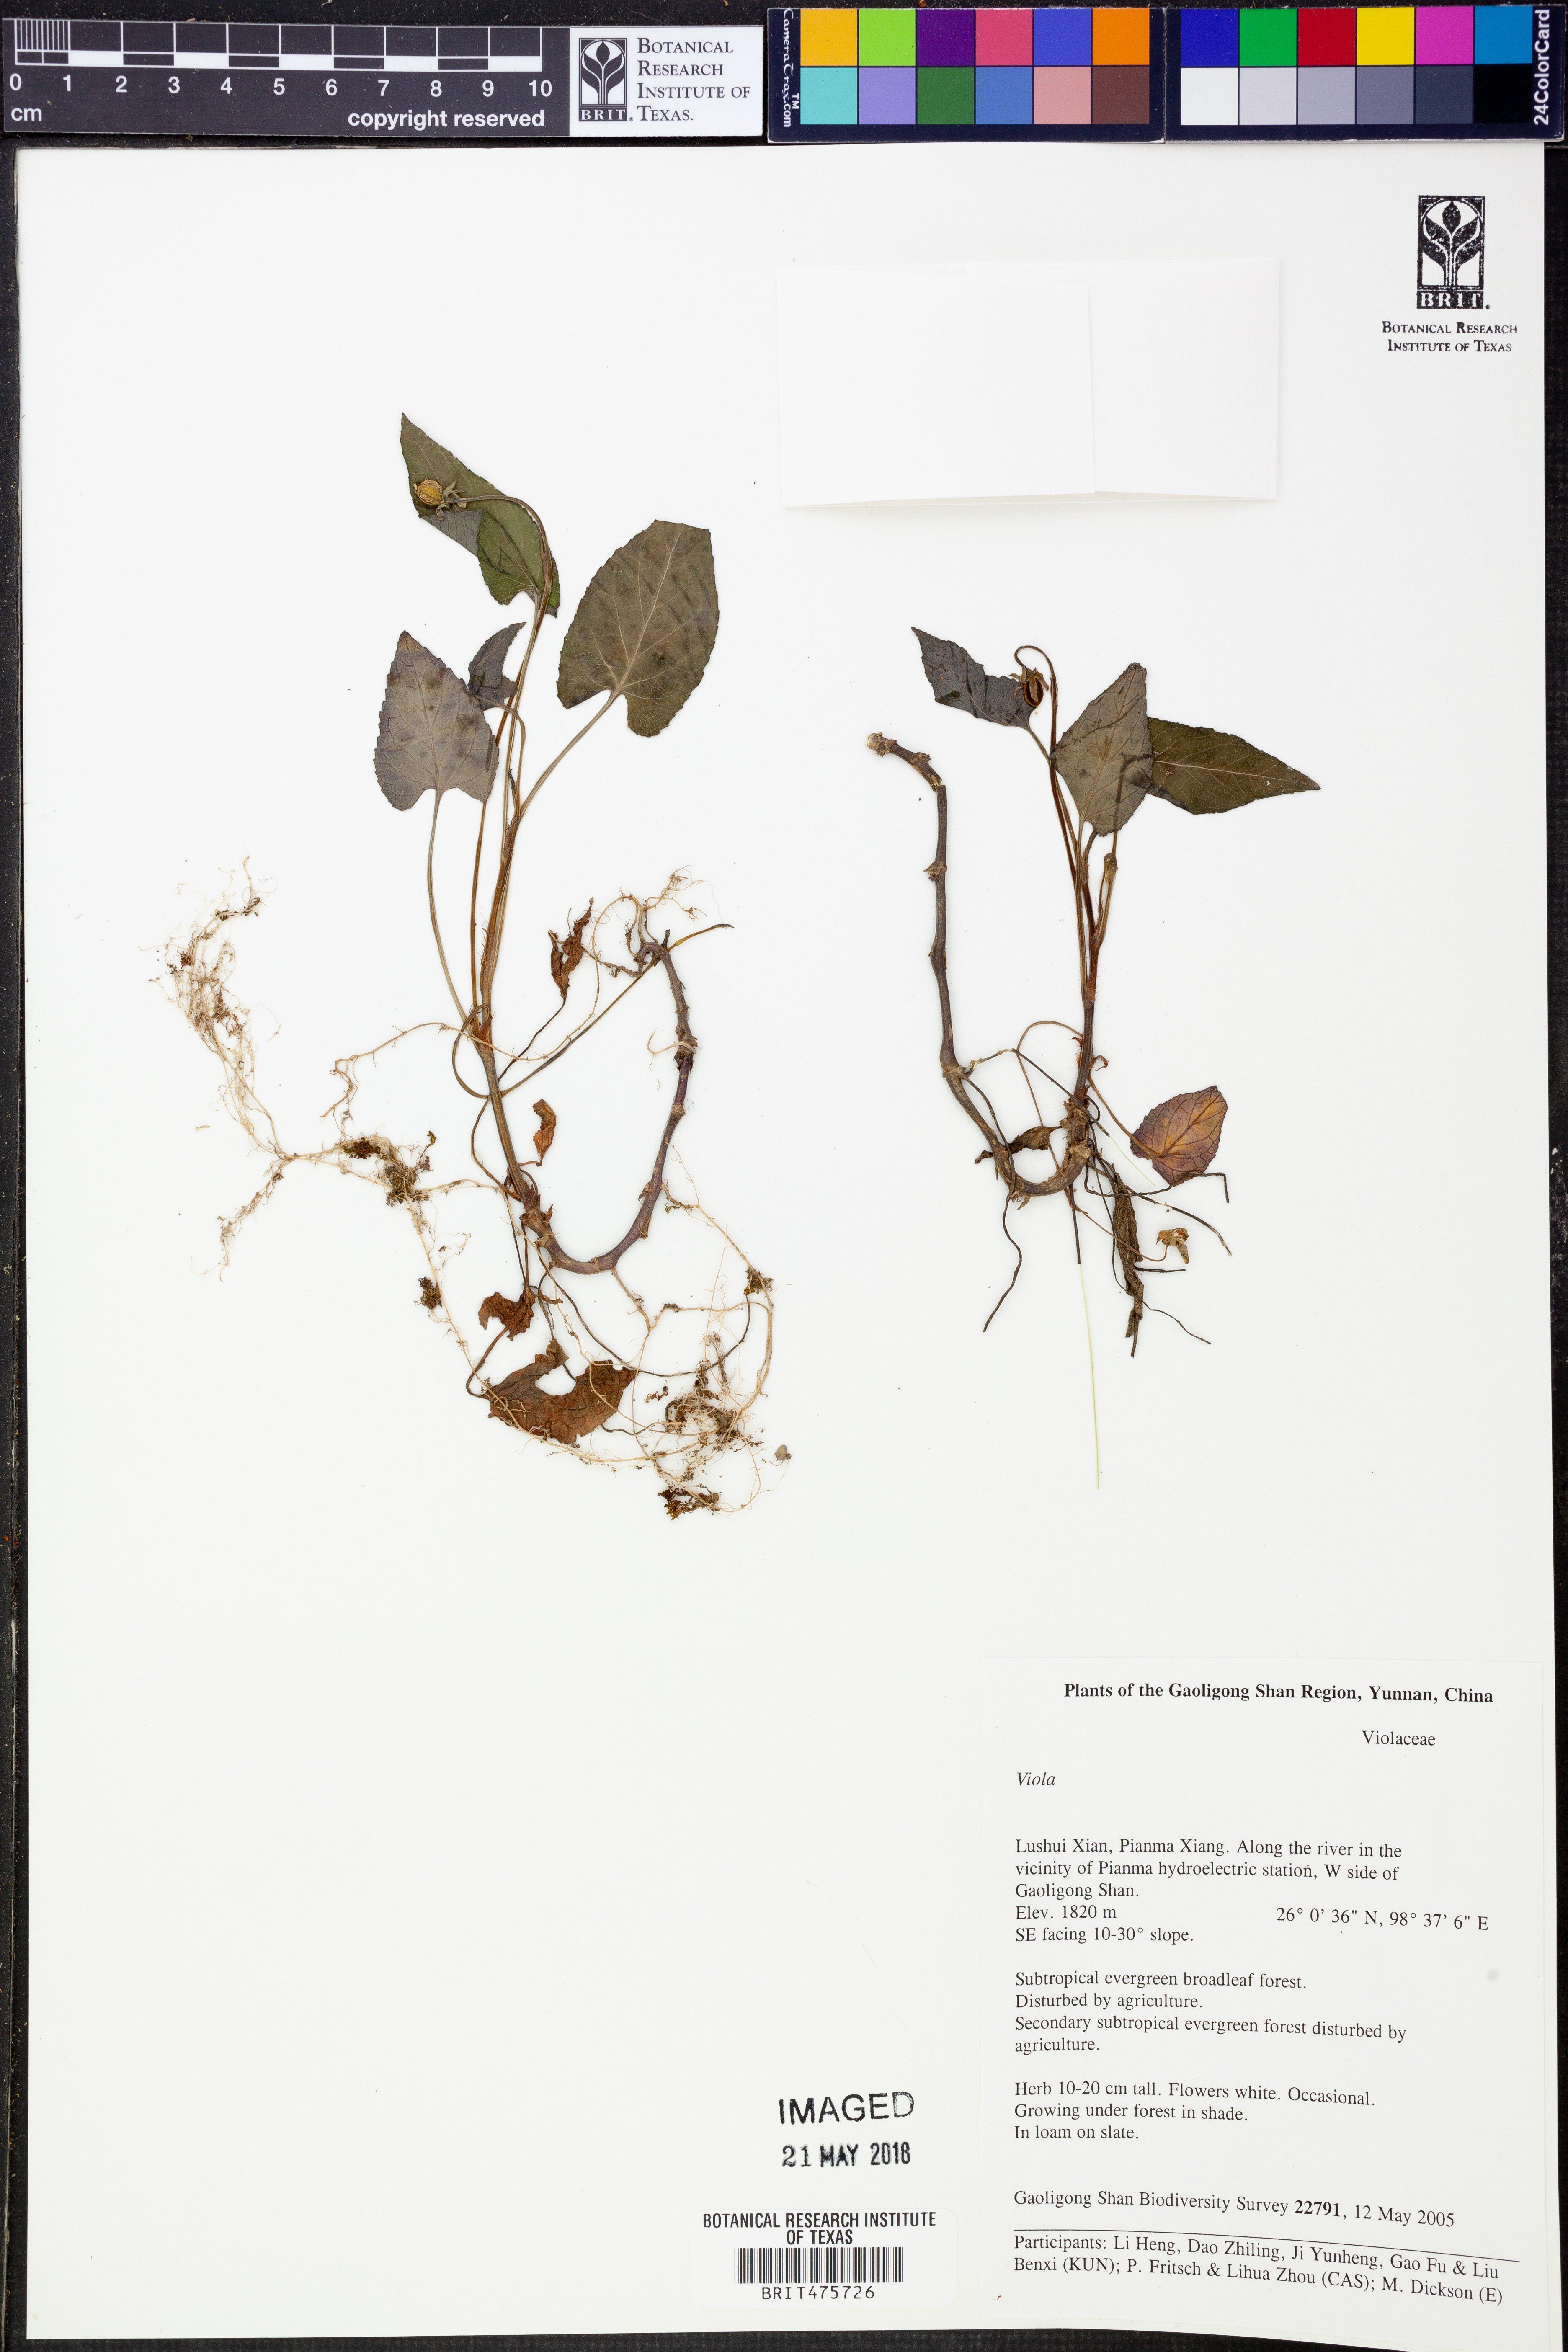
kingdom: Plantae
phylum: Tracheophyta
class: Magnoliopsida
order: Malpighiales
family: Violaceae
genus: Viola
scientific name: Viola
